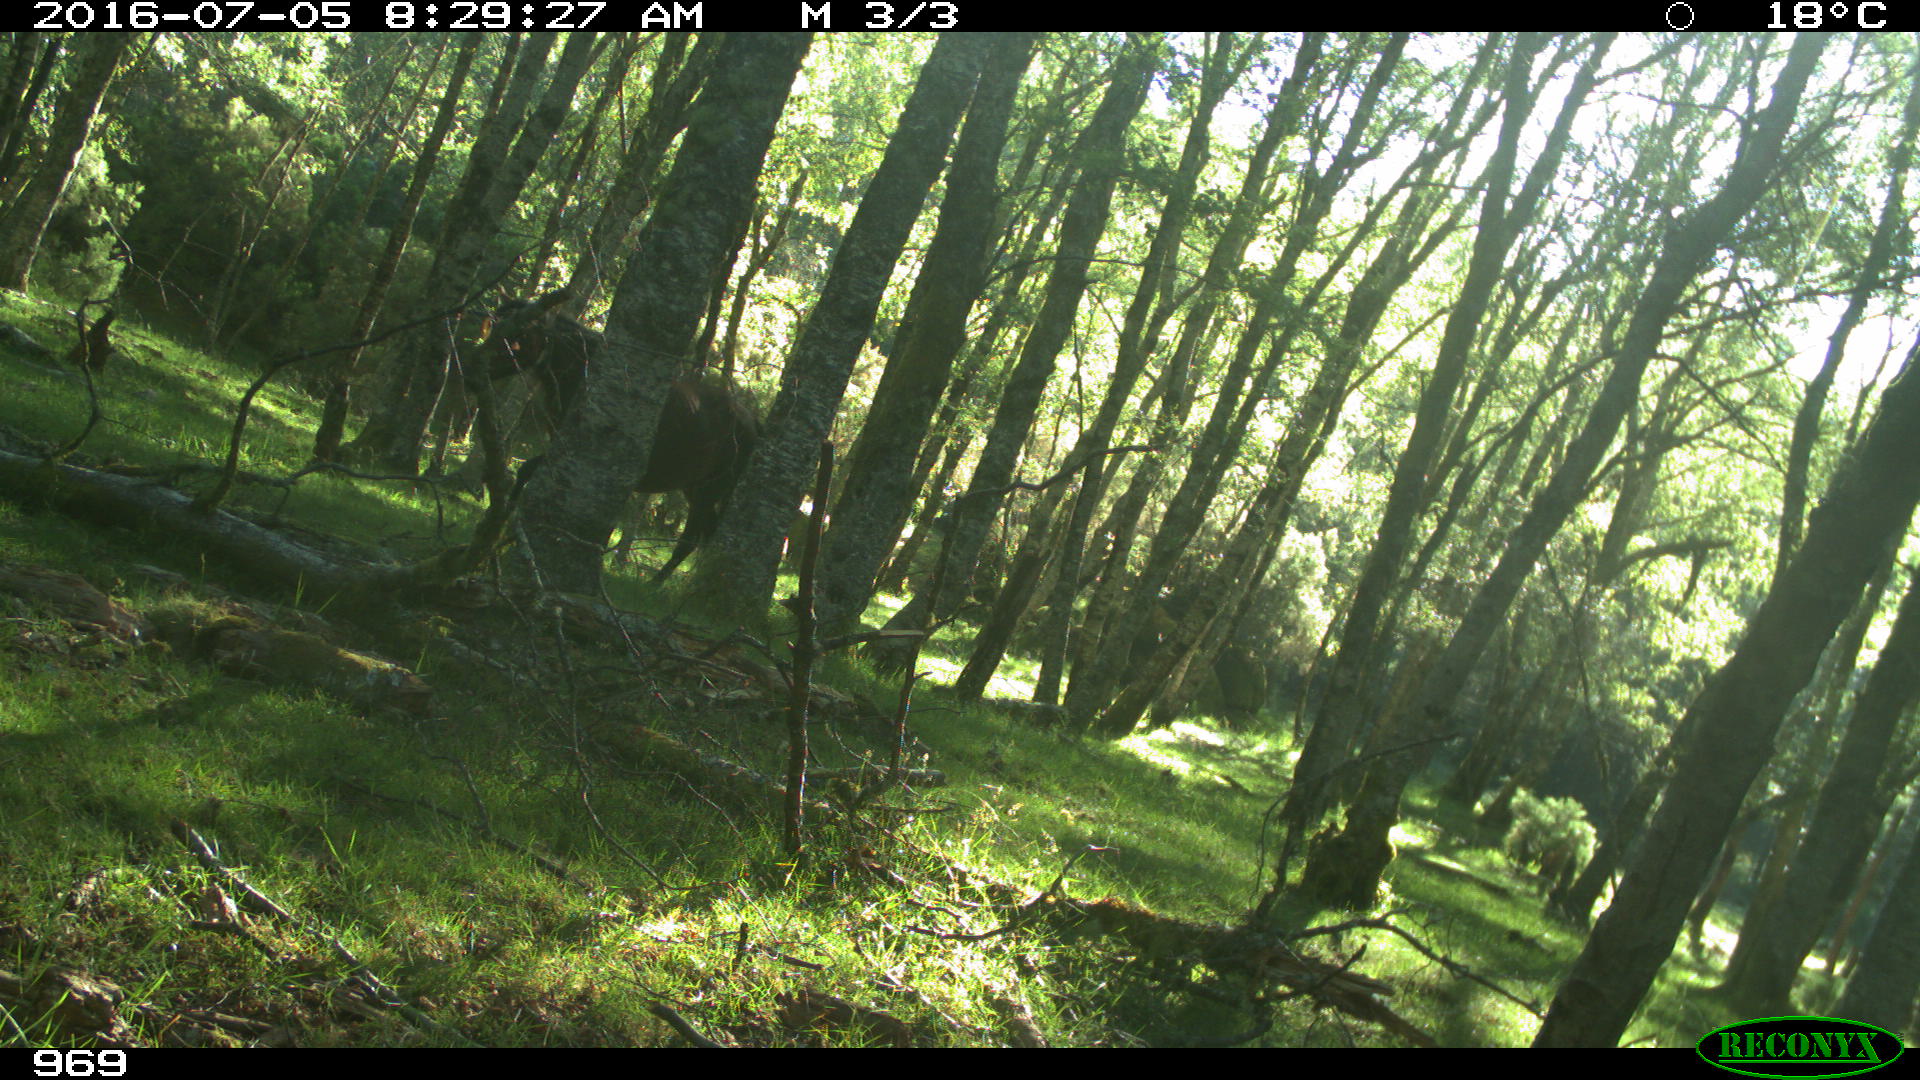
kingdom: Animalia
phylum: Chordata
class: Mammalia
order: Perissodactyla
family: Equidae
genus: Equus
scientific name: Equus caballus
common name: Horse
